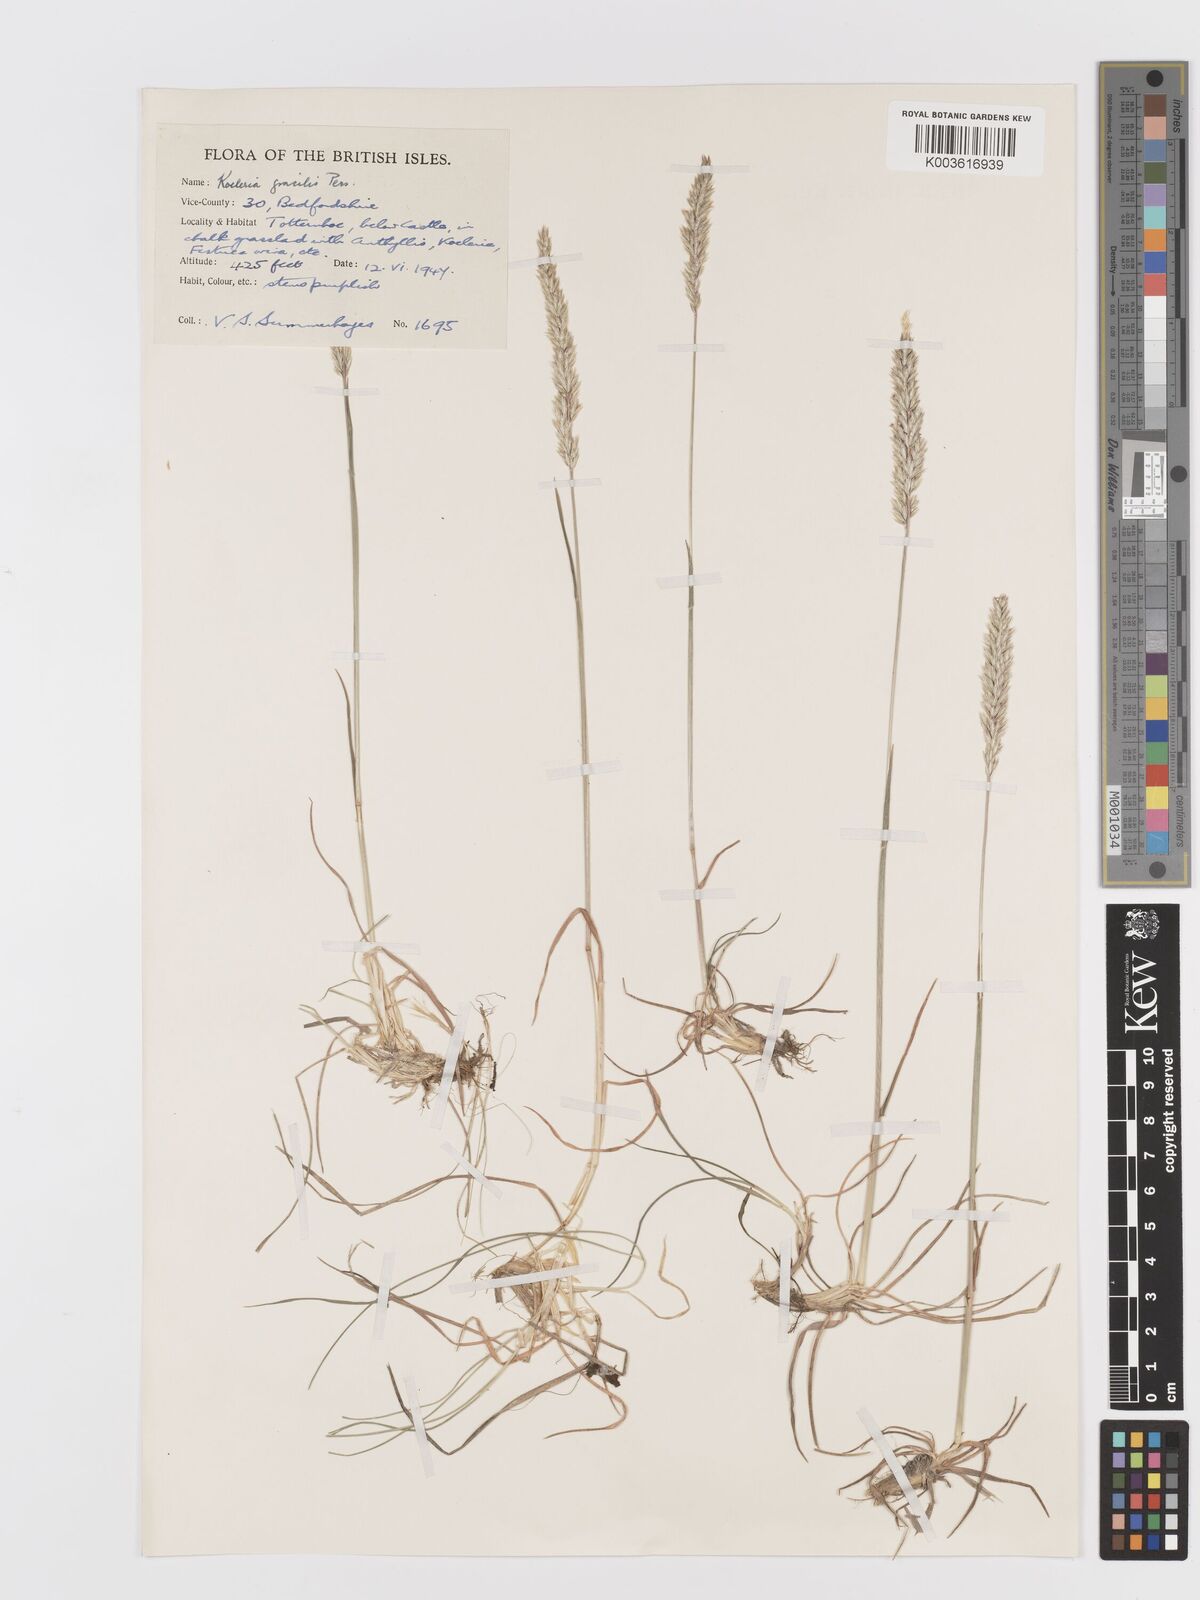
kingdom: Plantae
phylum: Tracheophyta
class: Liliopsida
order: Poales
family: Poaceae
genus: Koeleria
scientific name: Koeleria macrantha
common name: Crested hair-grass
